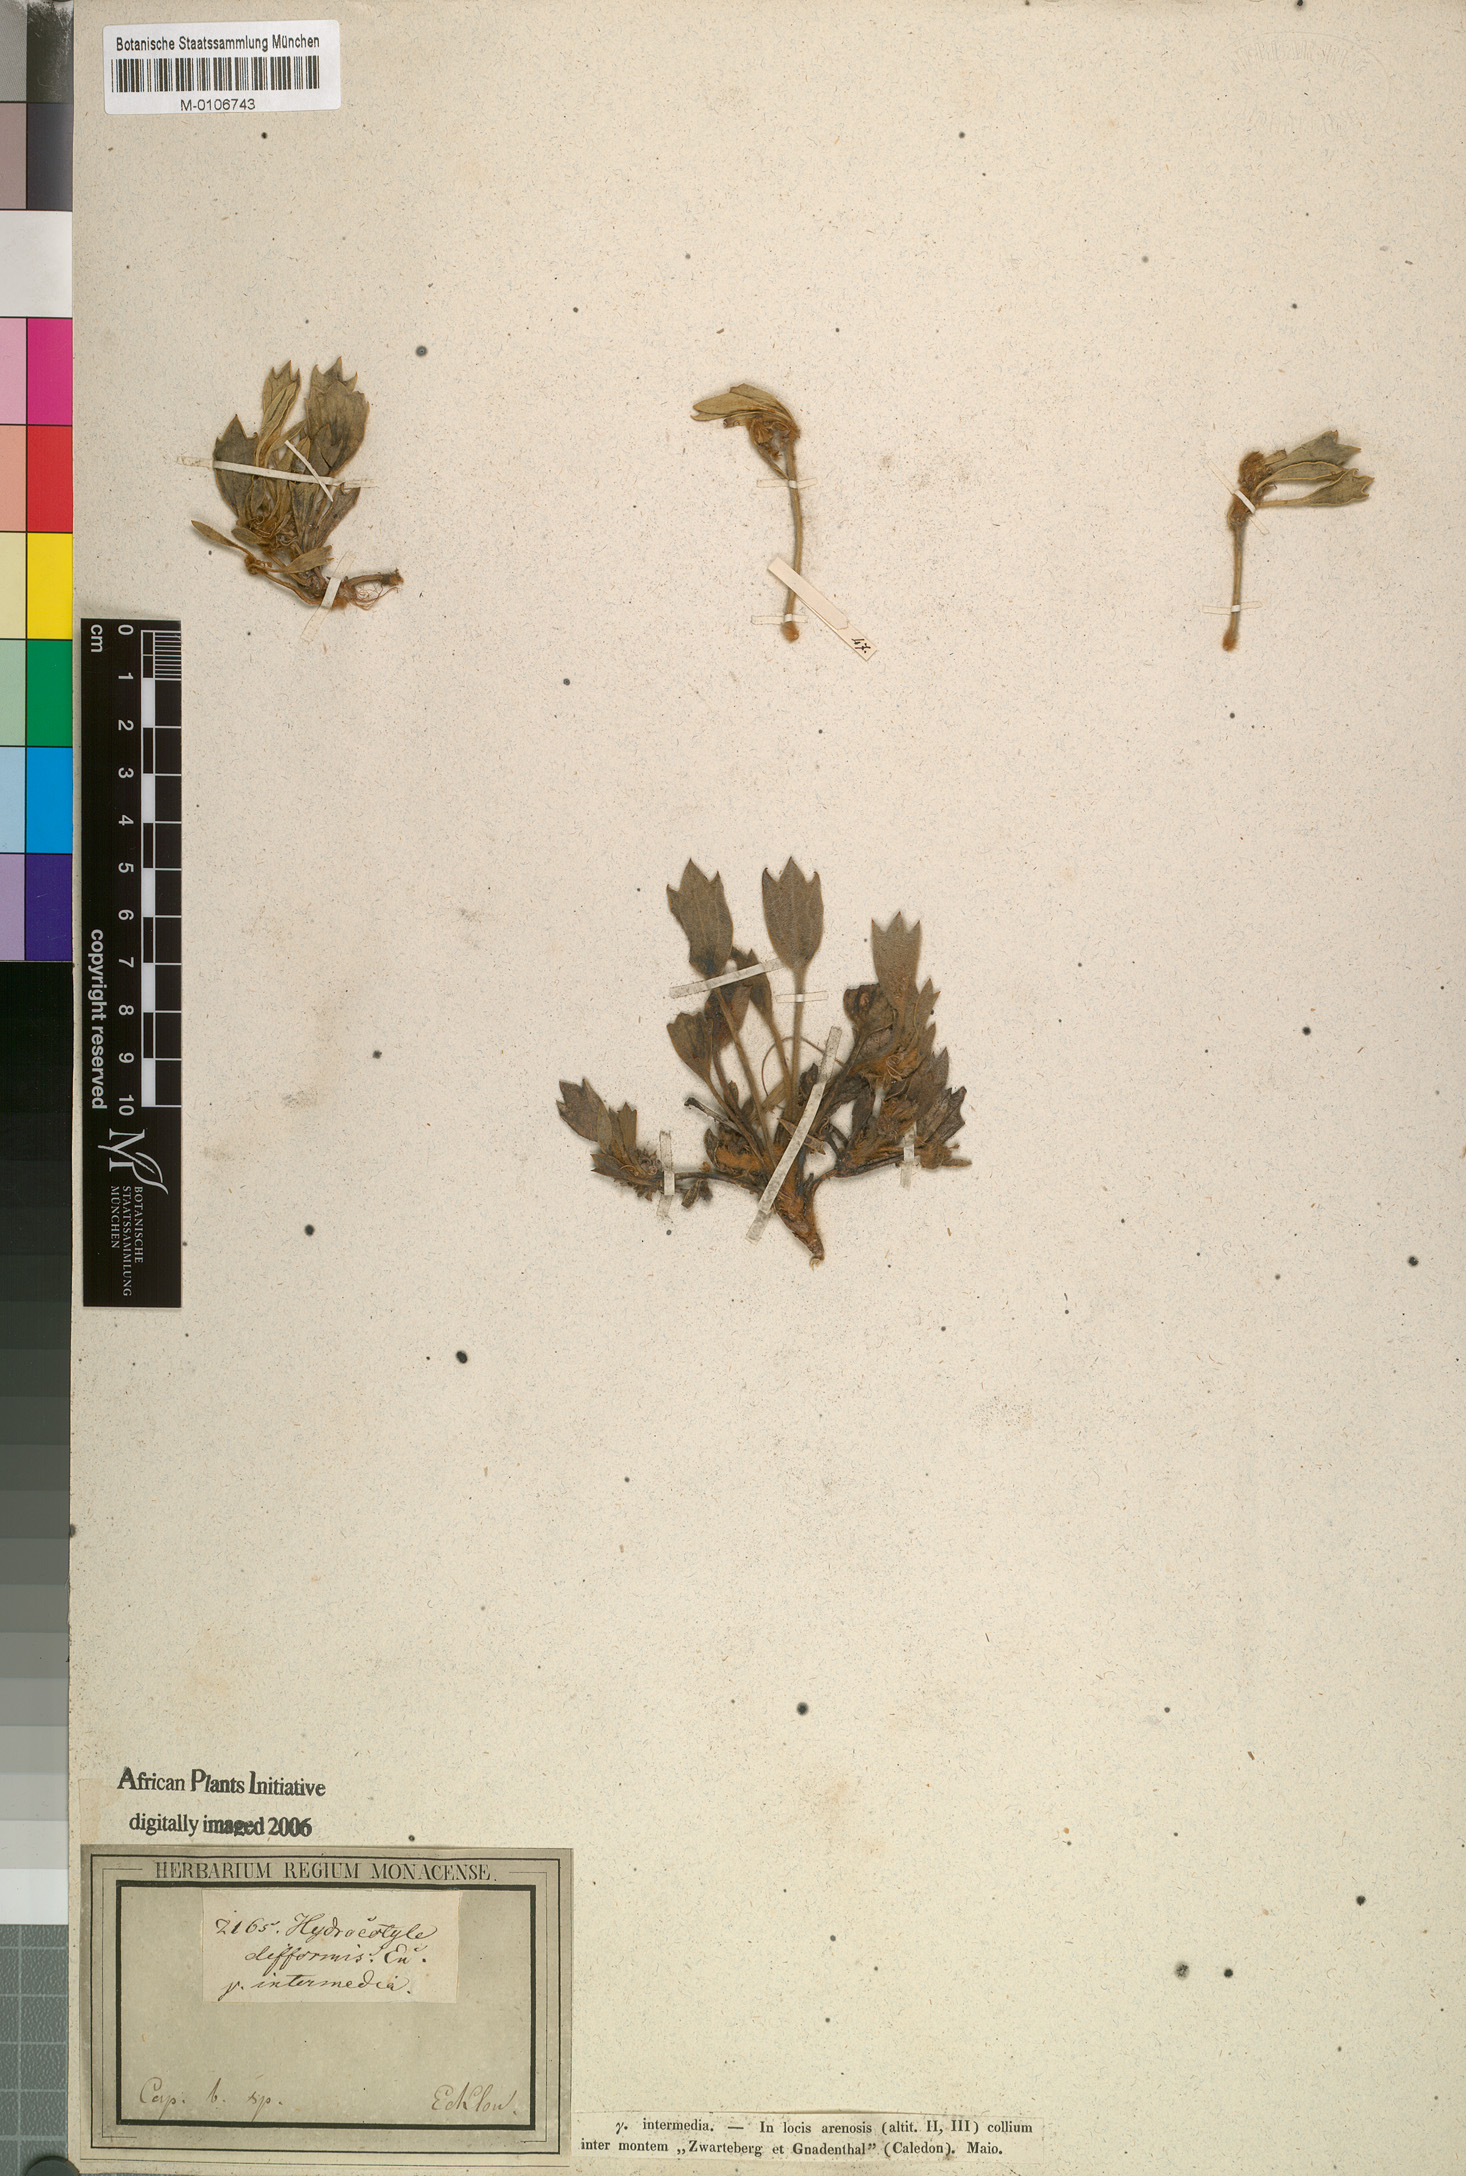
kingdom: Plantae
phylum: Tracheophyta
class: Magnoliopsida
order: Apiales
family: Apiaceae
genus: Centella
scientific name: Centella difformis
